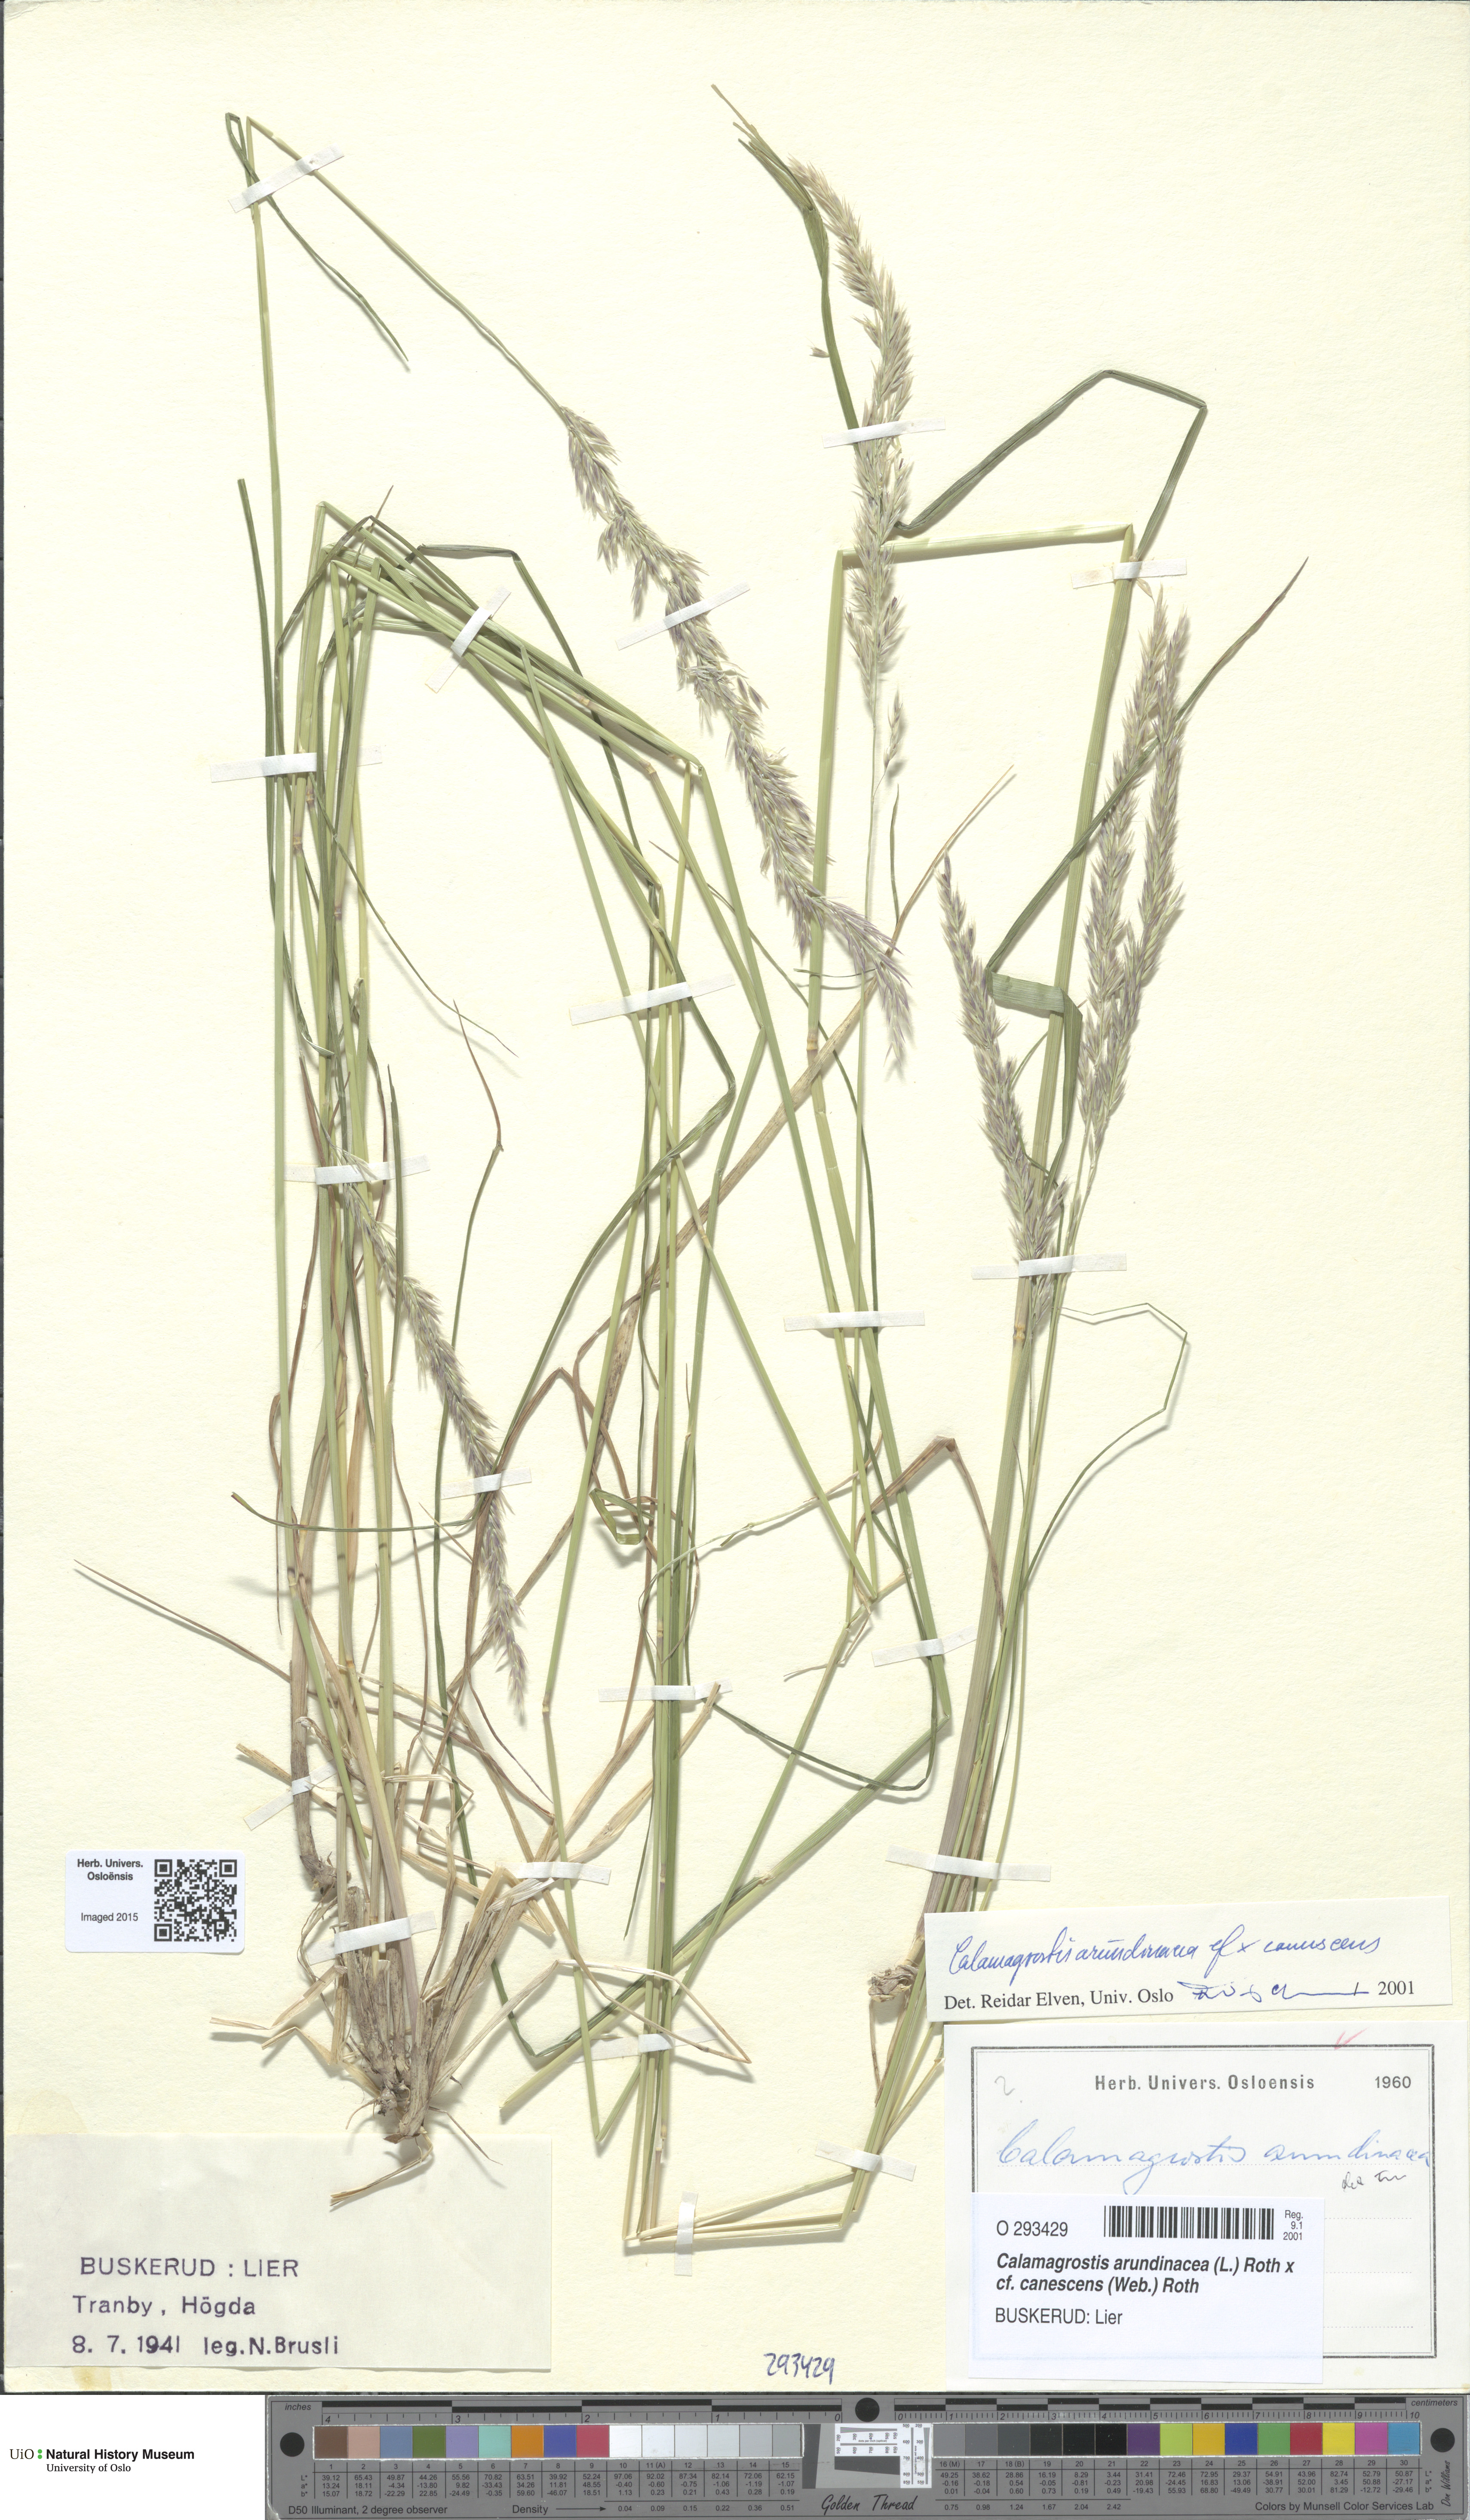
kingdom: Plantae
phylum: Tracheophyta
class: Liliopsida
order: Poales
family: Poaceae
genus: Calamagrostis
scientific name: Calamagrostis
